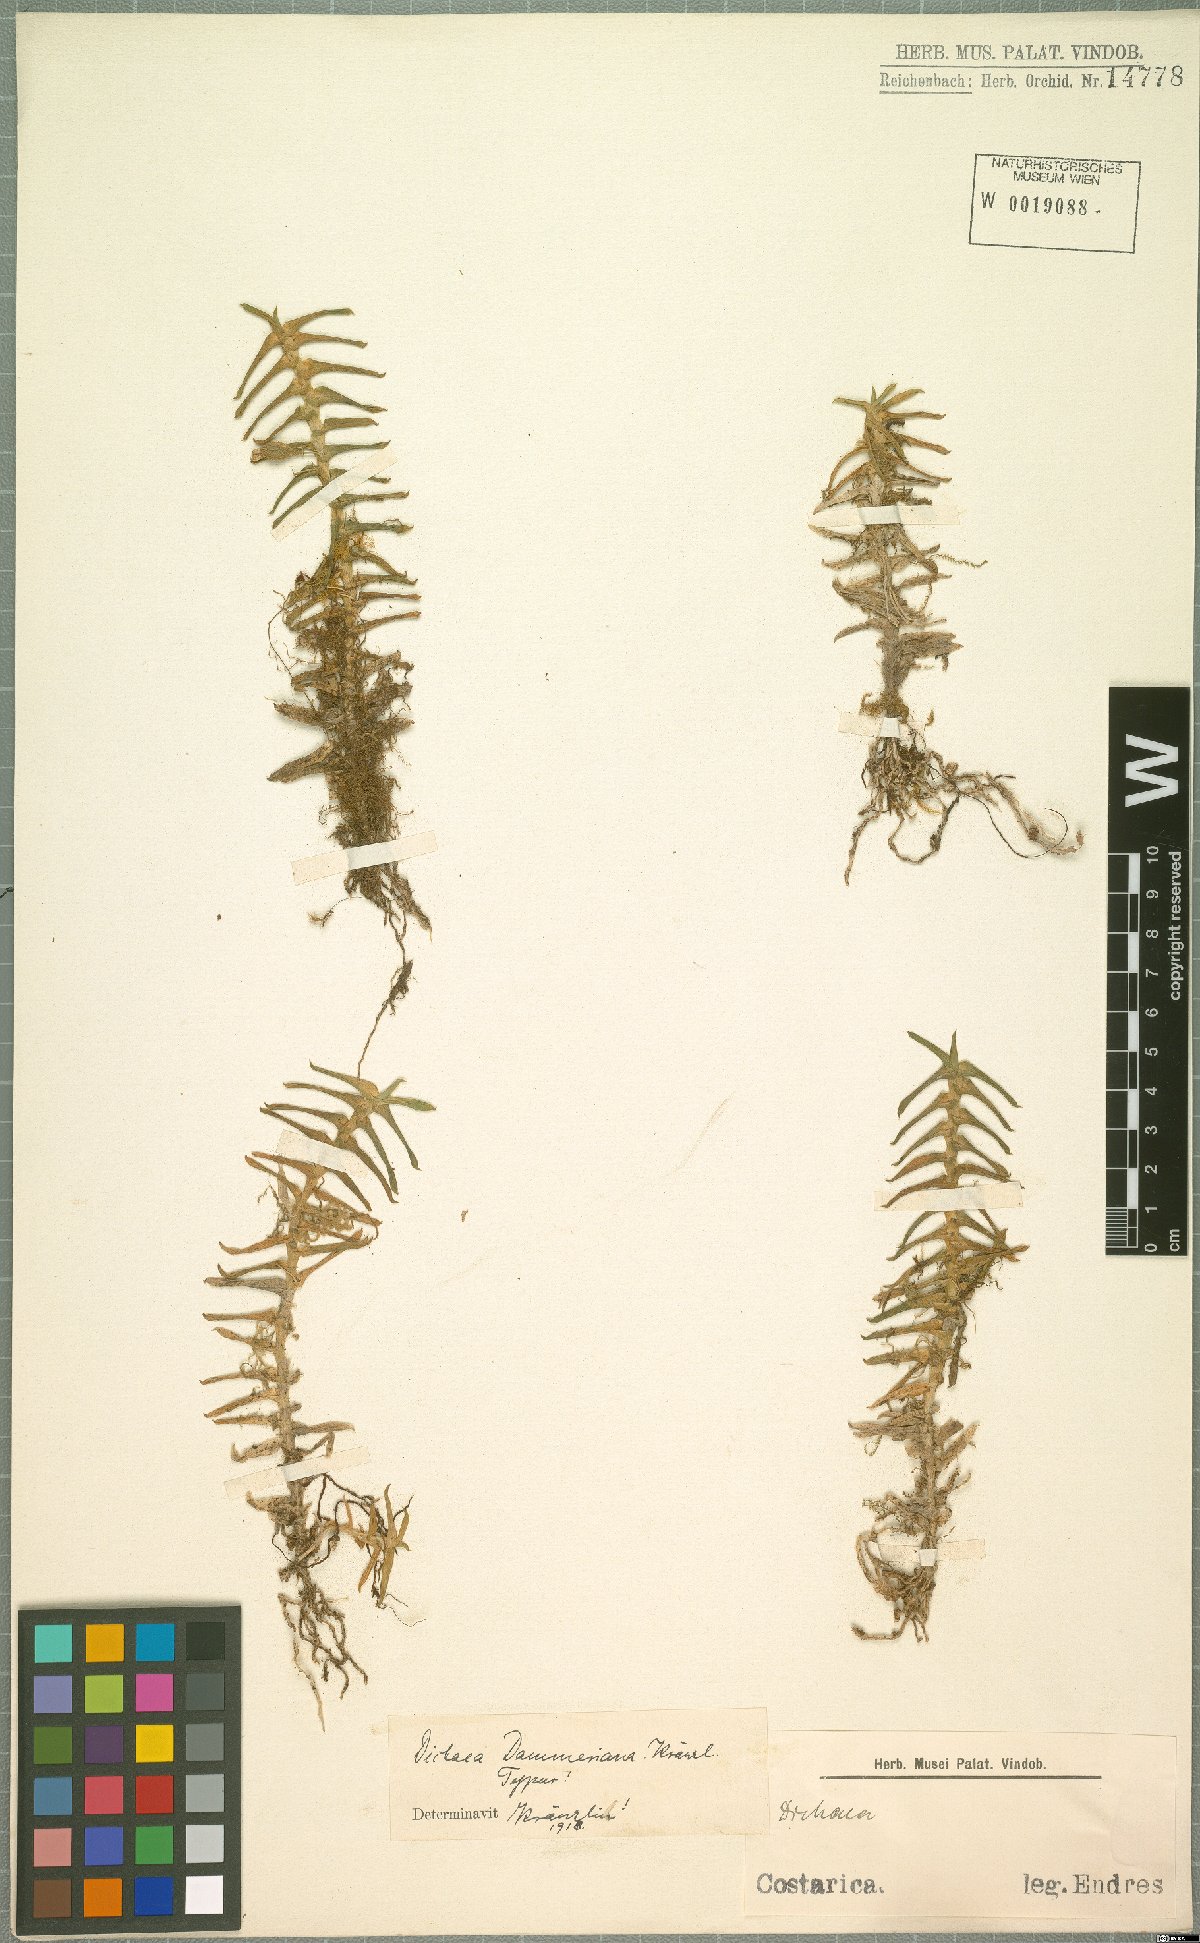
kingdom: Plantae
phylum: Tracheophyta
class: Liliopsida
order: Asparagales
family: Orchidaceae
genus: Dichaea
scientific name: Dichaea dammeriana
